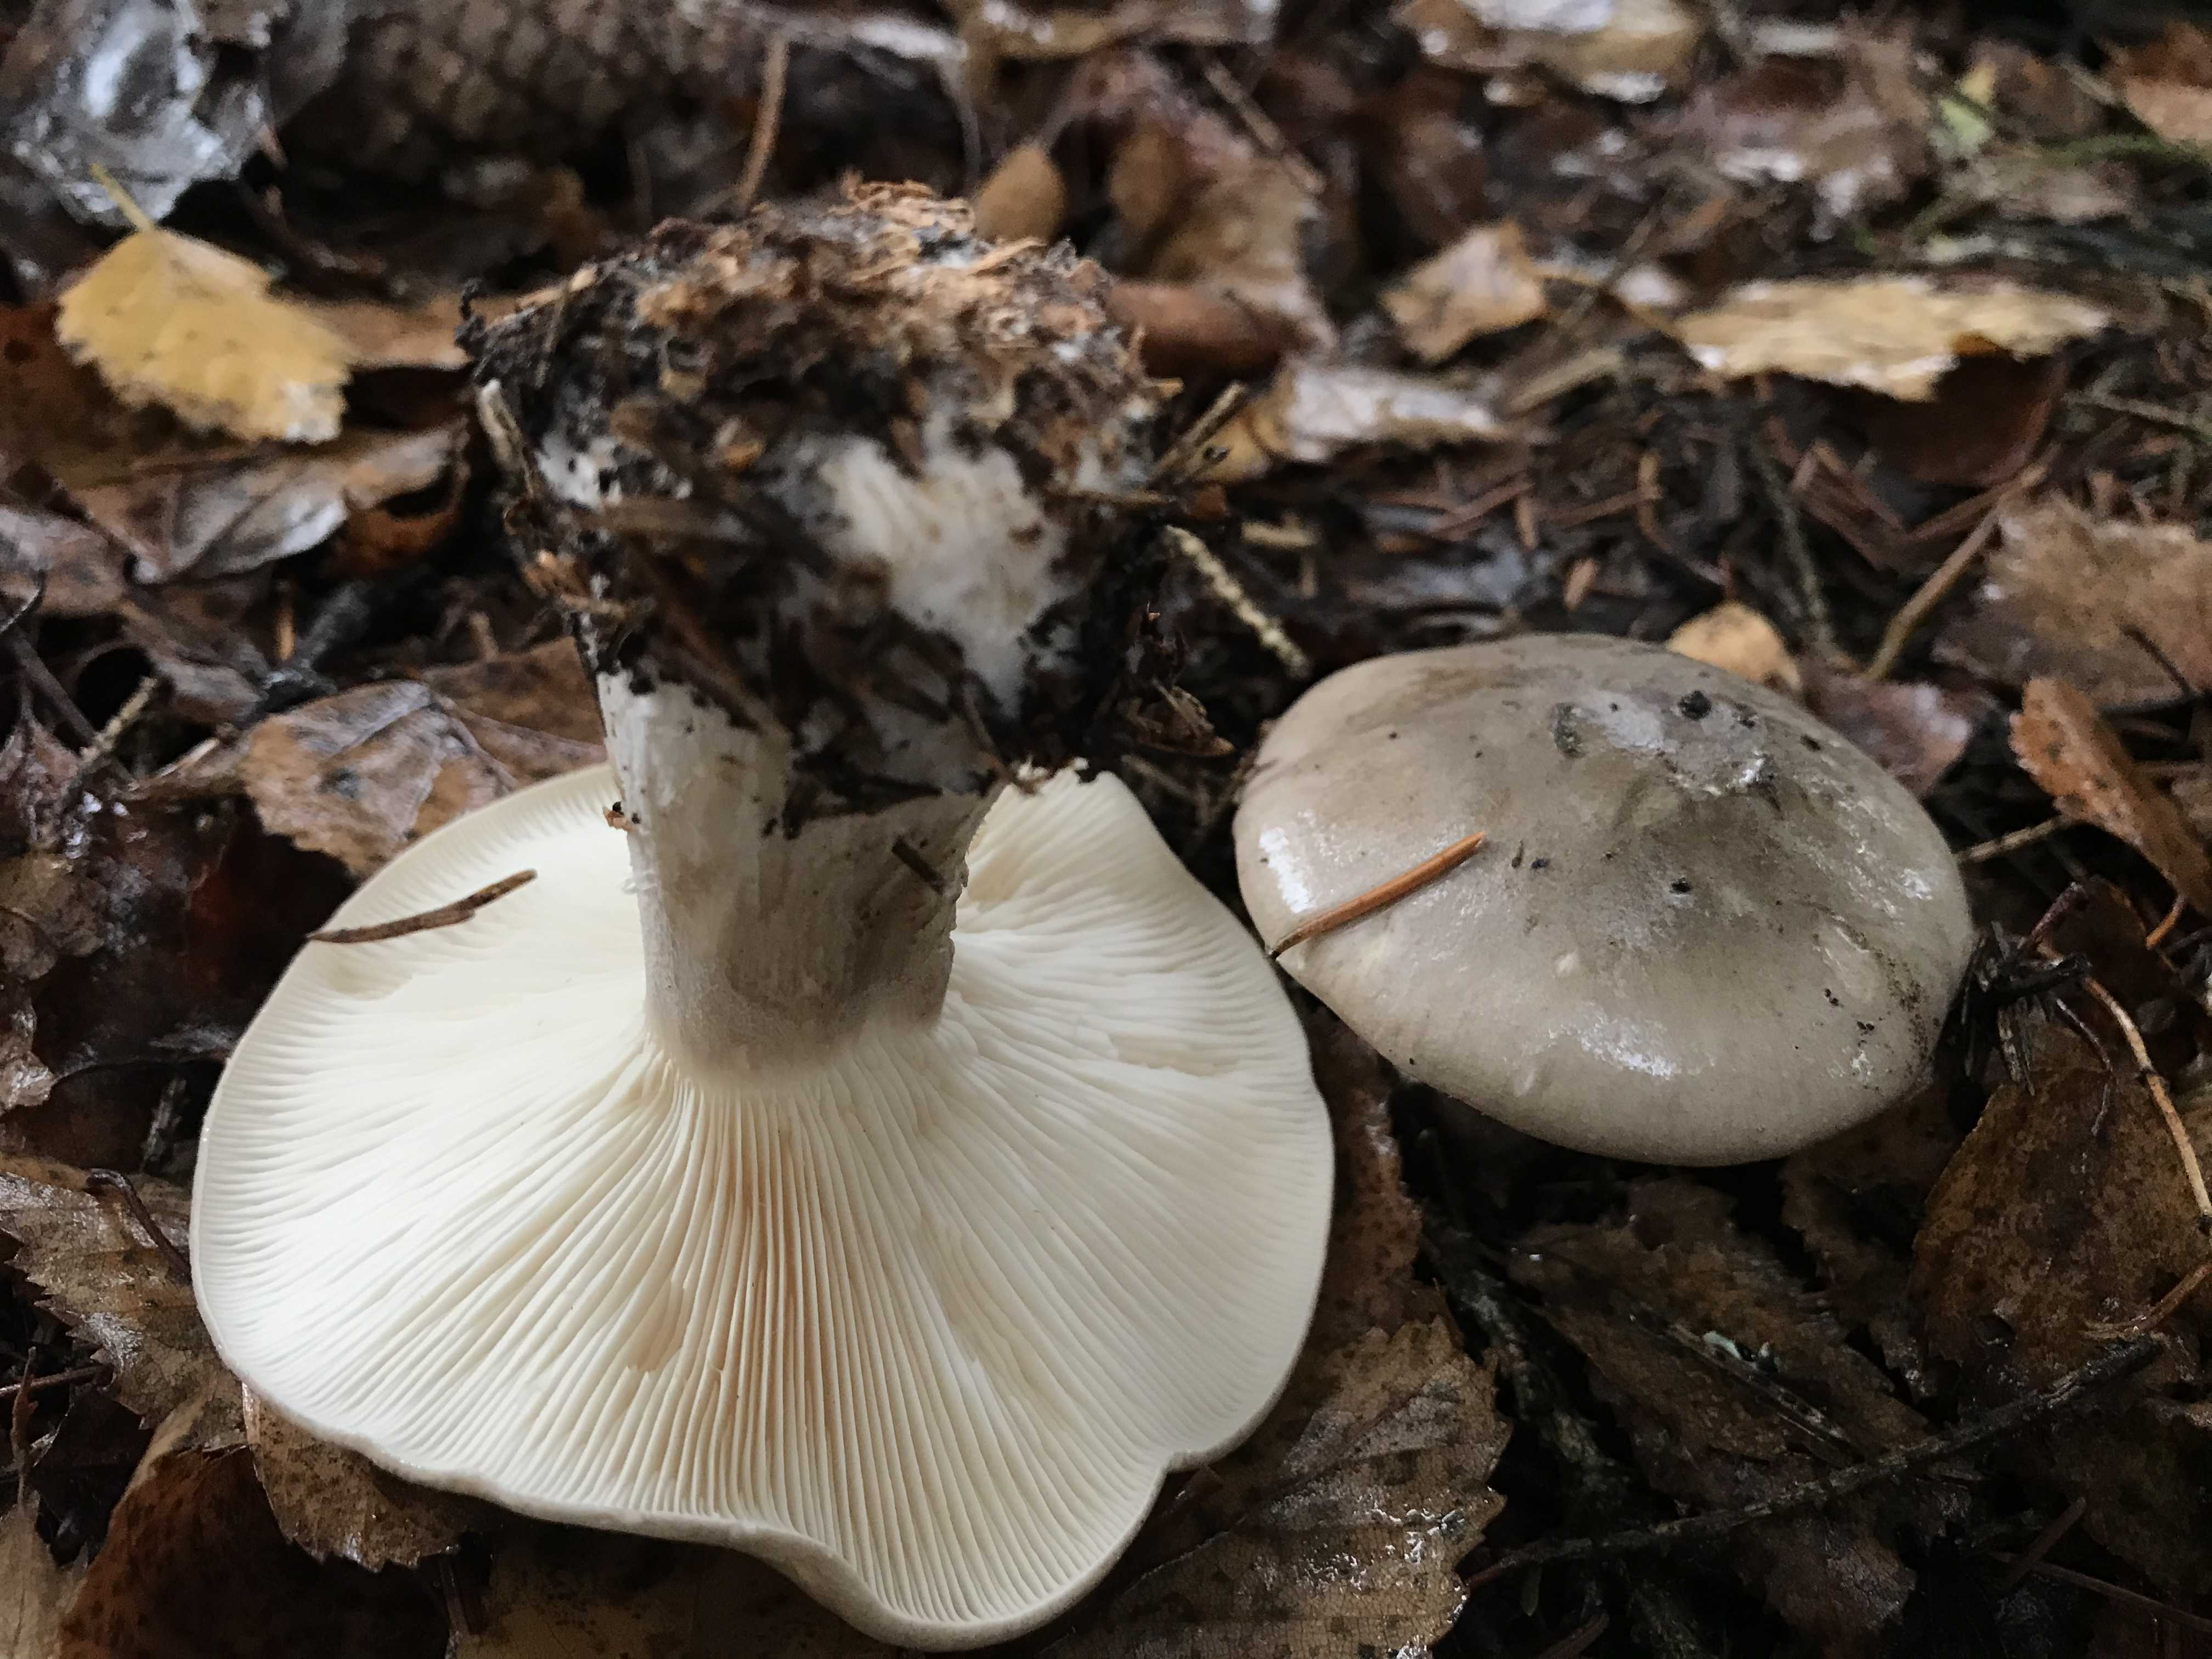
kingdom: Fungi
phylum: Basidiomycota
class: Agaricomycetes
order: Agaricales
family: Tricholomataceae
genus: Clitocybe
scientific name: Clitocybe nebularis
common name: tåge-tragthat
